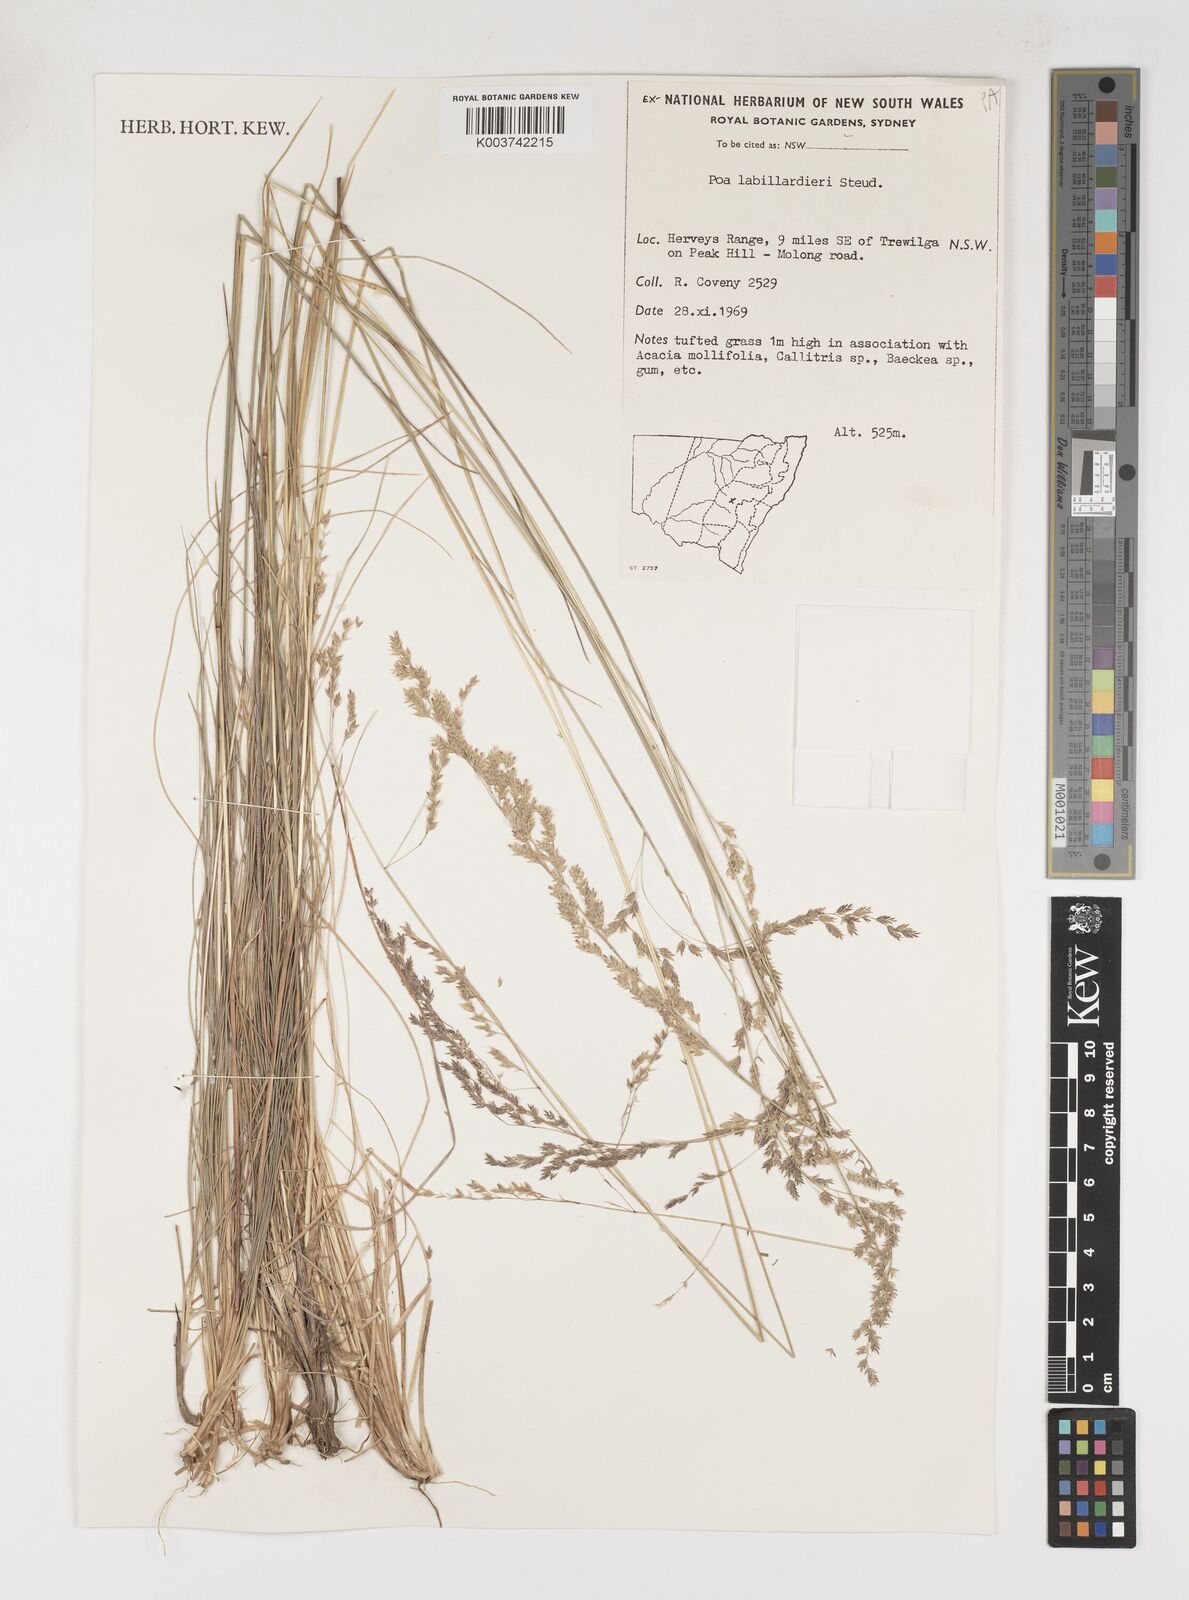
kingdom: Plantae
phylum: Tracheophyta
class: Liliopsida
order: Poales
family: Poaceae
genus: Poa
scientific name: Poa labillardierei
